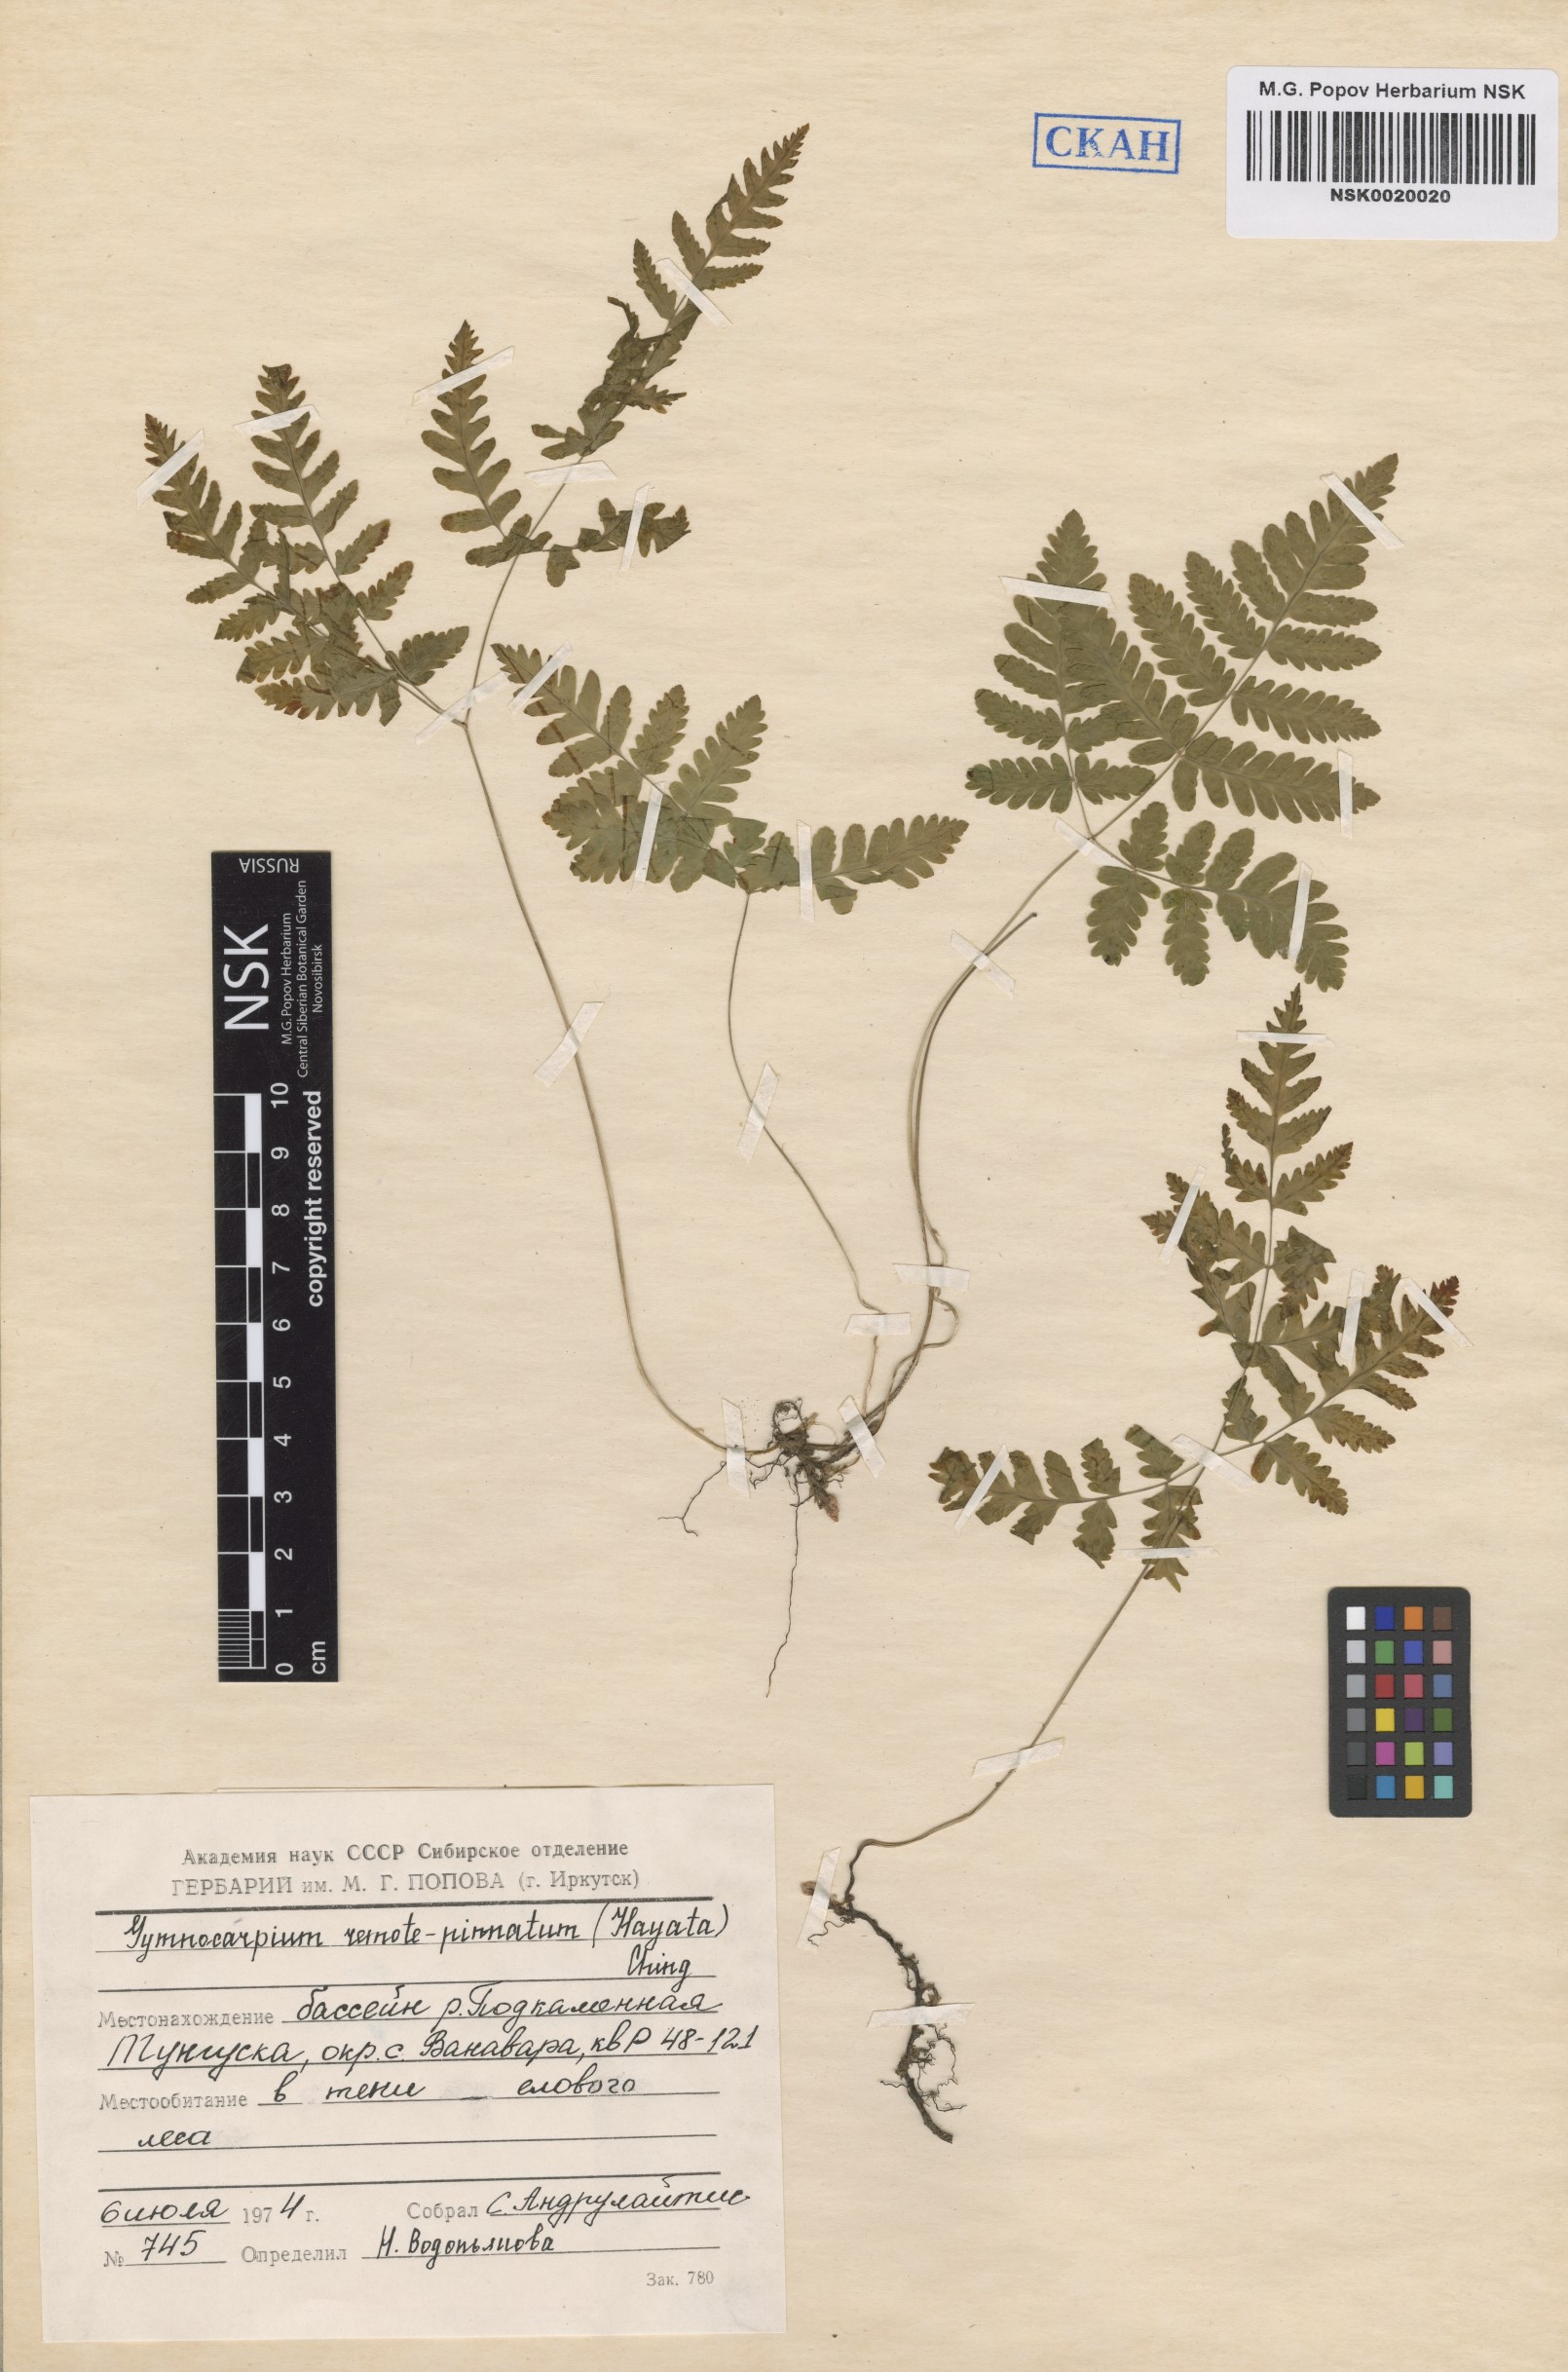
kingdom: Plantae
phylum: Tracheophyta
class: Polypodiopsida
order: Polypodiales
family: Cystopteridaceae
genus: Gymnocarpium
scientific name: Gymnocarpium remotepinnatum
